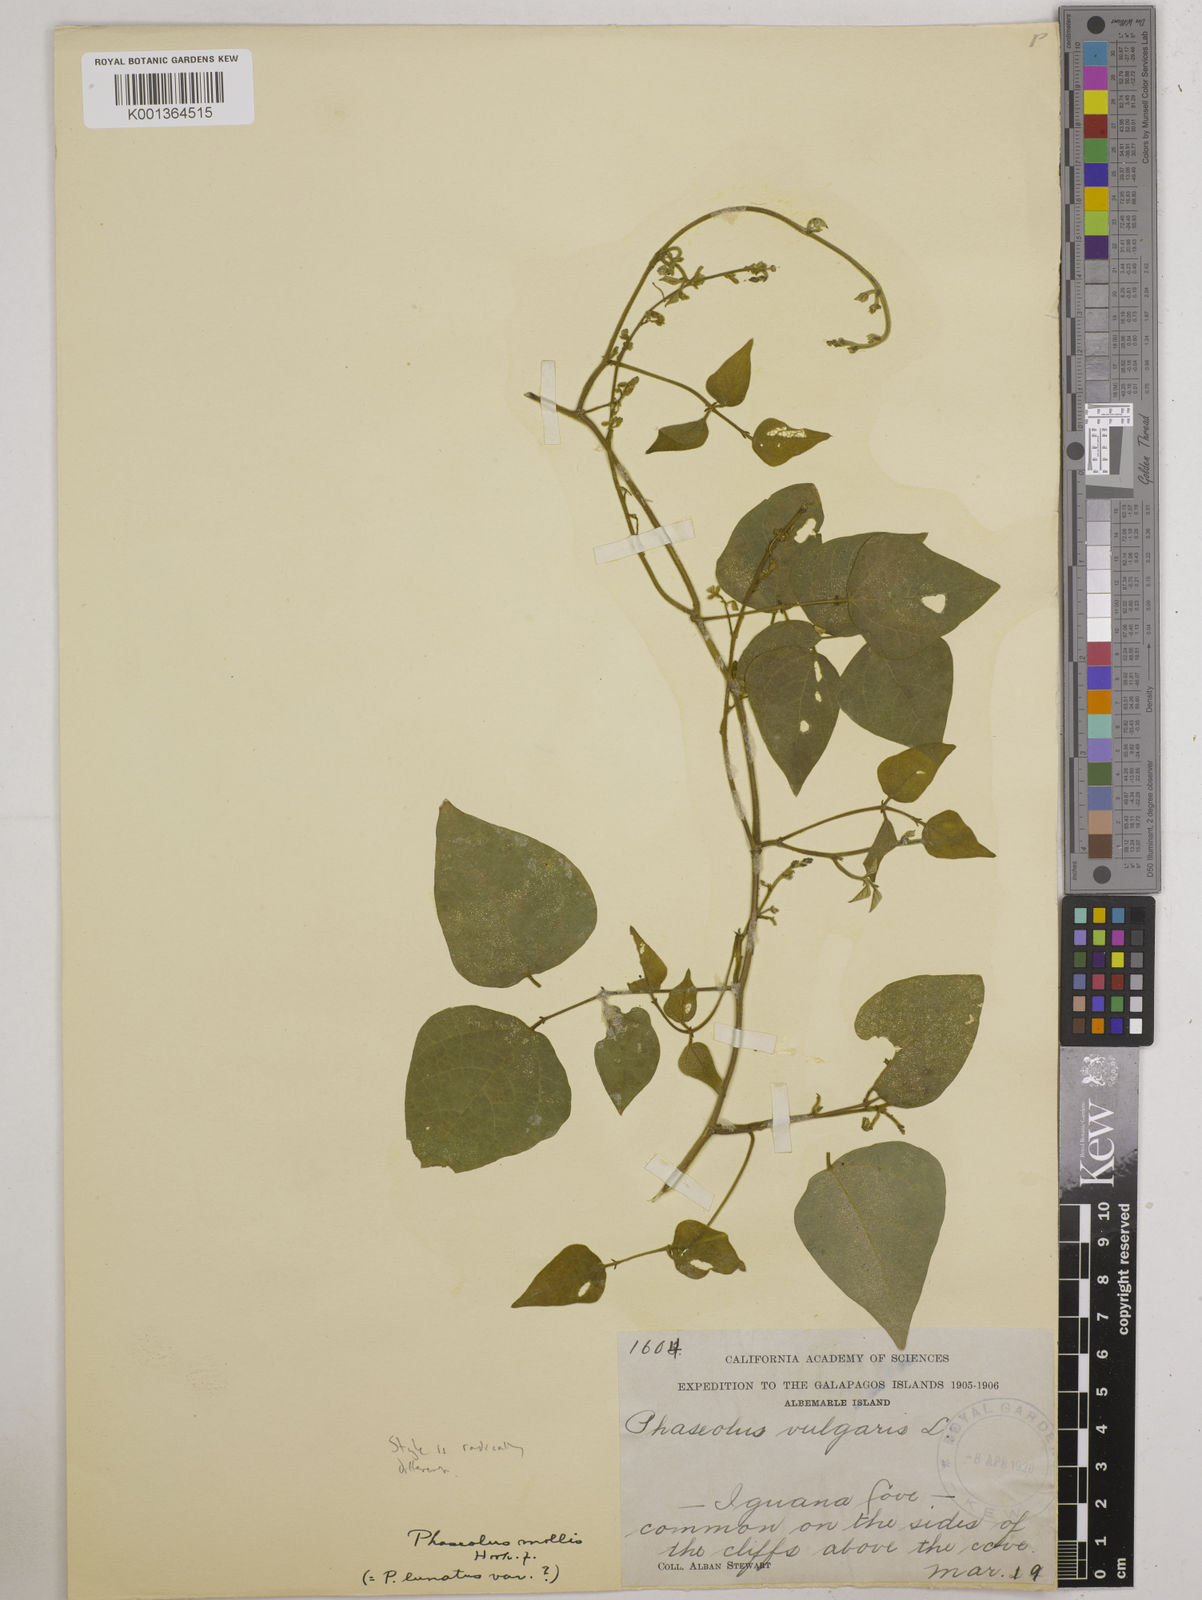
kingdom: Plantae
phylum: Tracheophyta
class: Magnoliopsida
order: Fabales
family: Fabaceae
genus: Phaseolus
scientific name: Phaseolus dumosus
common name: Year bean
